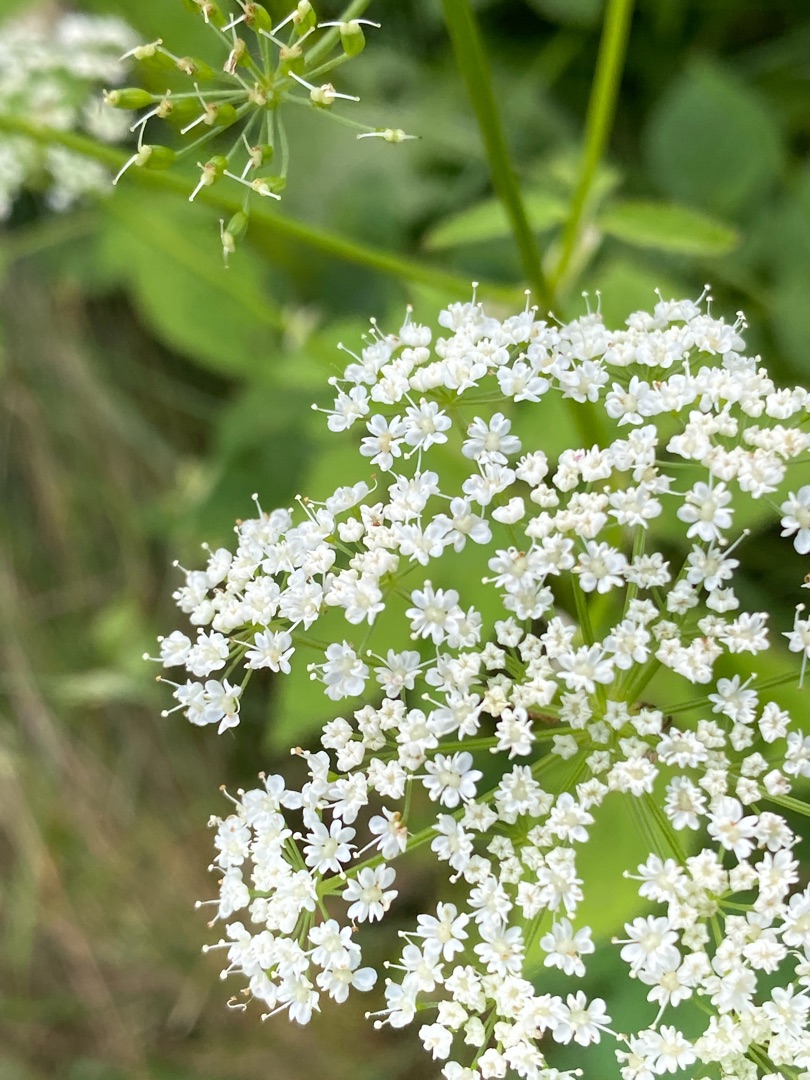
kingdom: Plantae
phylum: Tracheophyta
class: Magnoliopsida
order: Apiales
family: Apiaceae
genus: Aegopodium
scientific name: Aegopodium podagraria
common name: Skvalderkål
